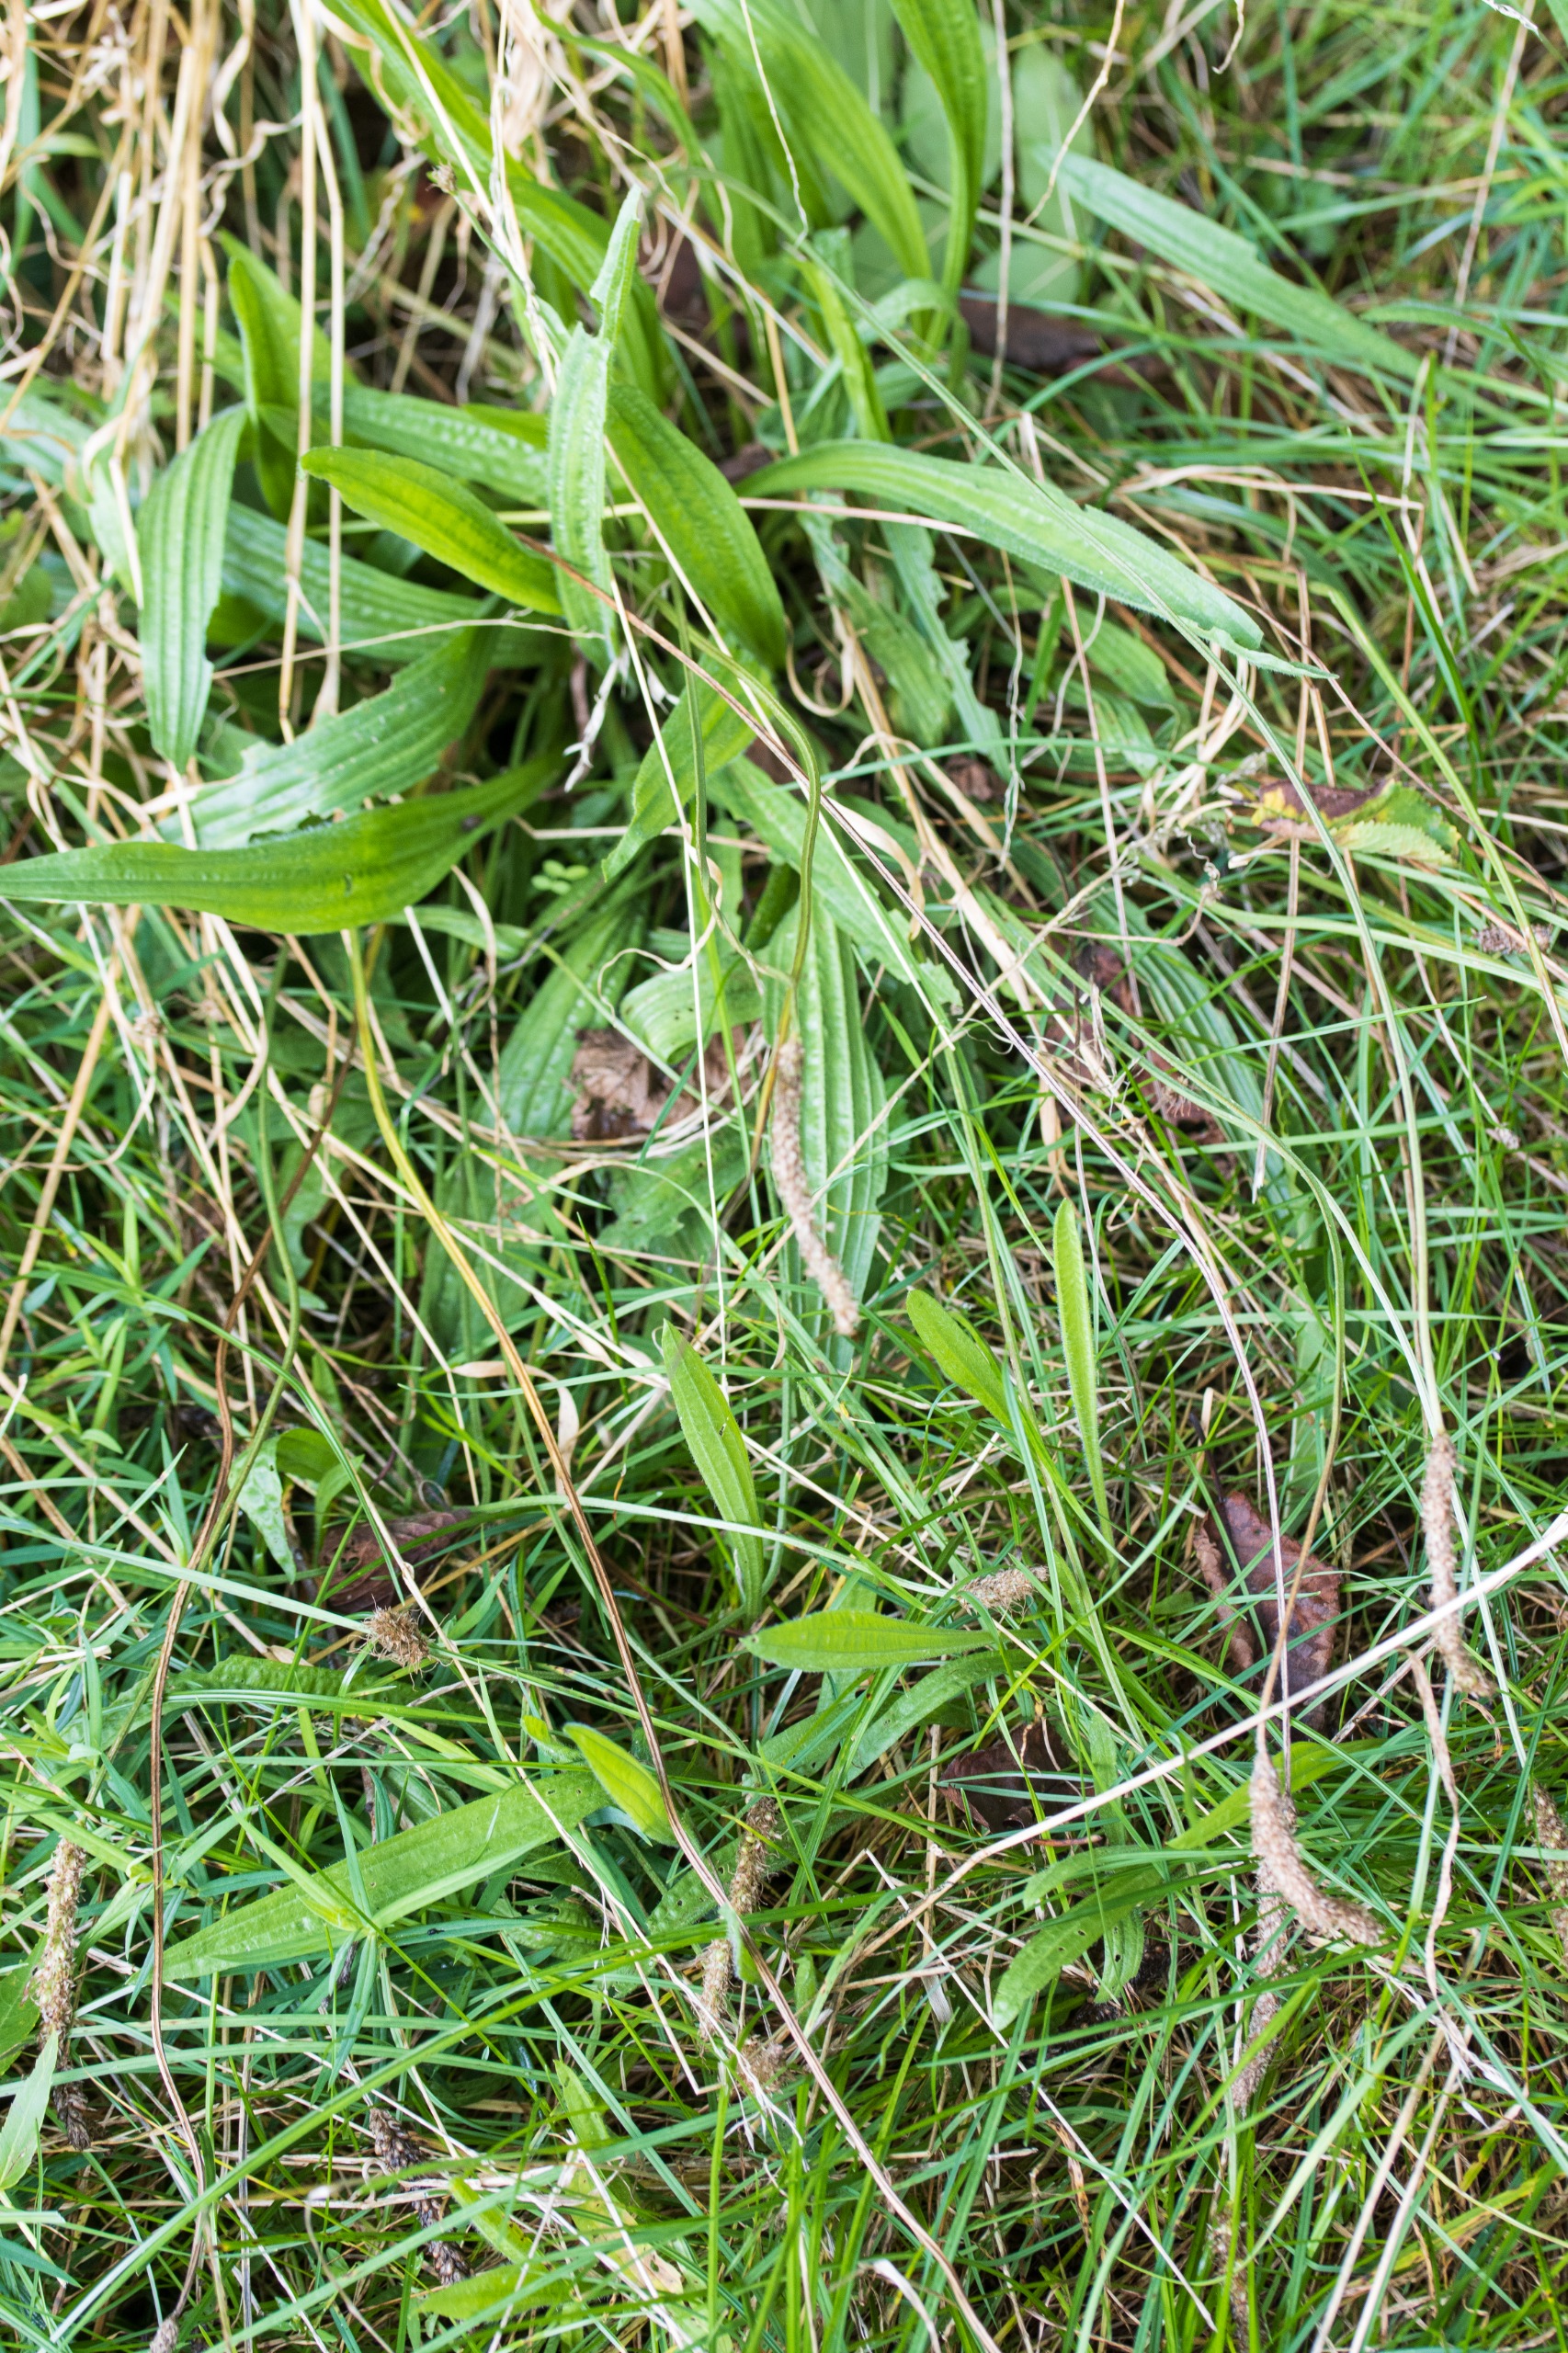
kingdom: Plantae
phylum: Tracheophyta
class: Magnoliopsida
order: Lamiales
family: Plantaginaceae
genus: Plantago
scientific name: Plantago lanceolata
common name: Lancet-vejbred
